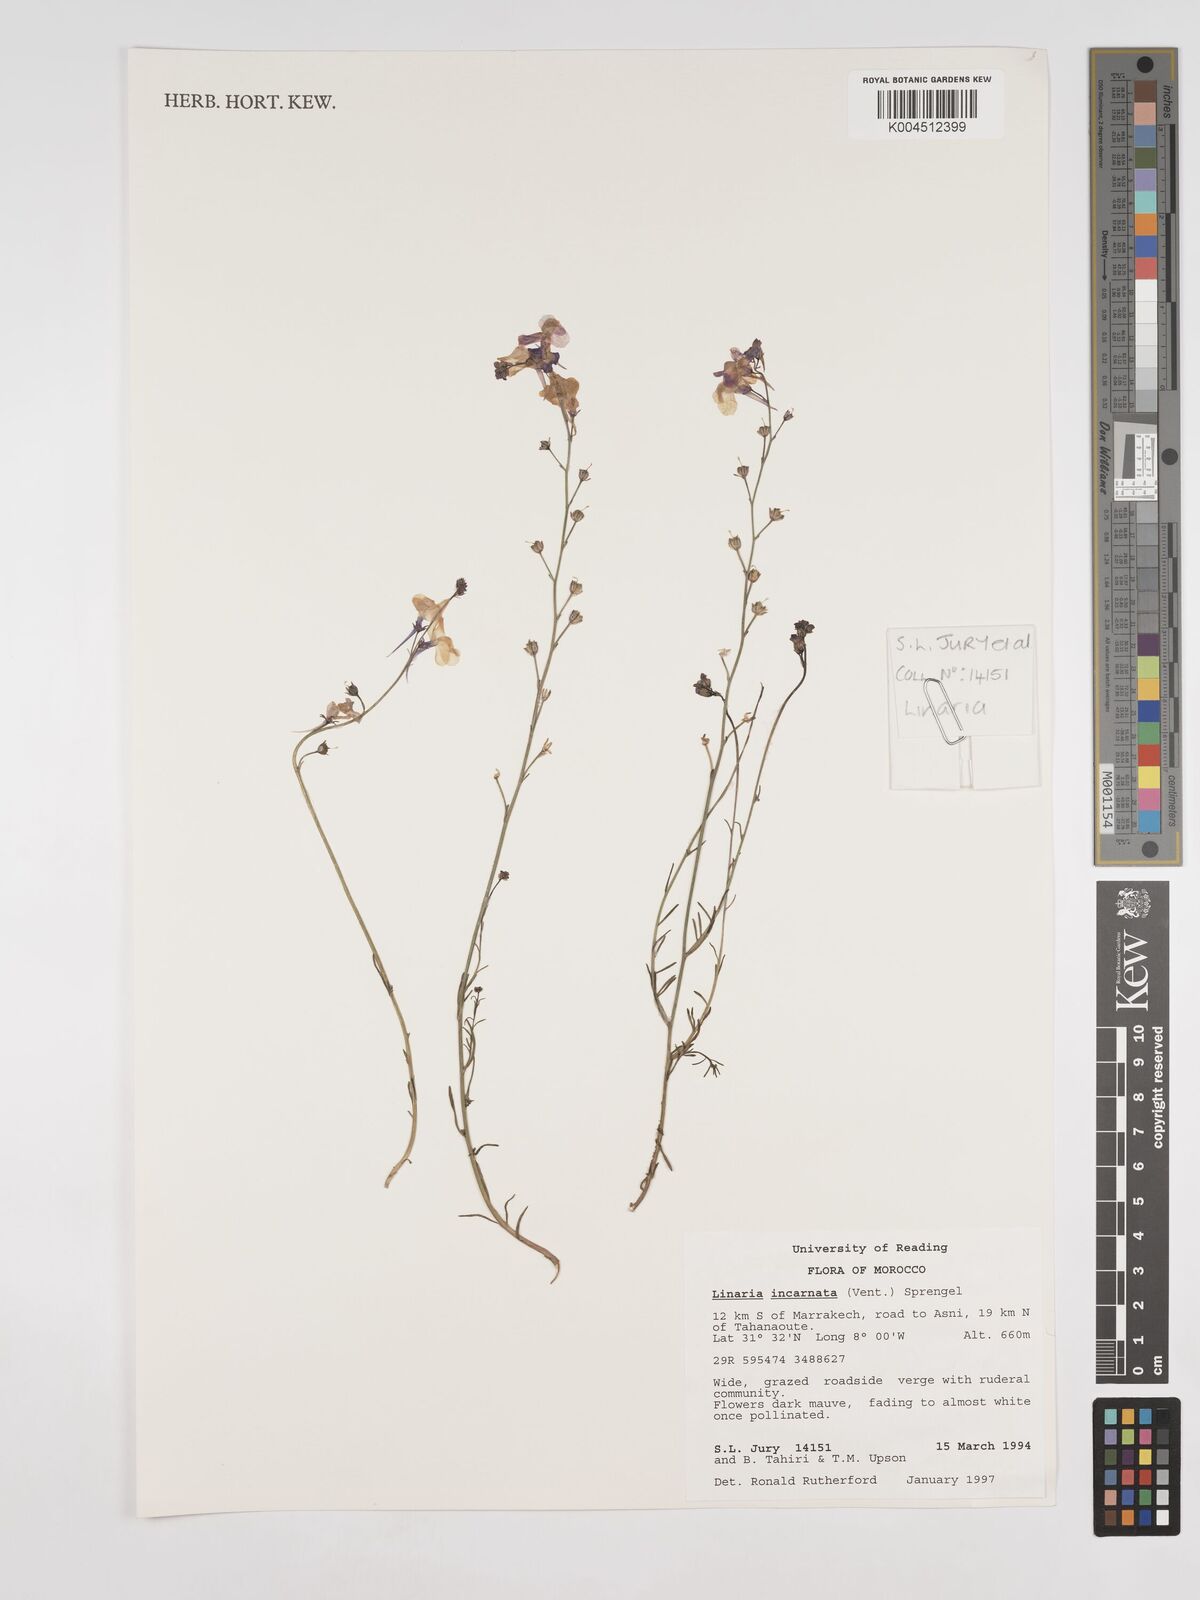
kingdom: Plantae
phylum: Tracheophyta
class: Magnoliopsida
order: Lamiales
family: Plantaginaceae
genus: Linaria
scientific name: Linaria incarnata
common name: Annual toadflax
